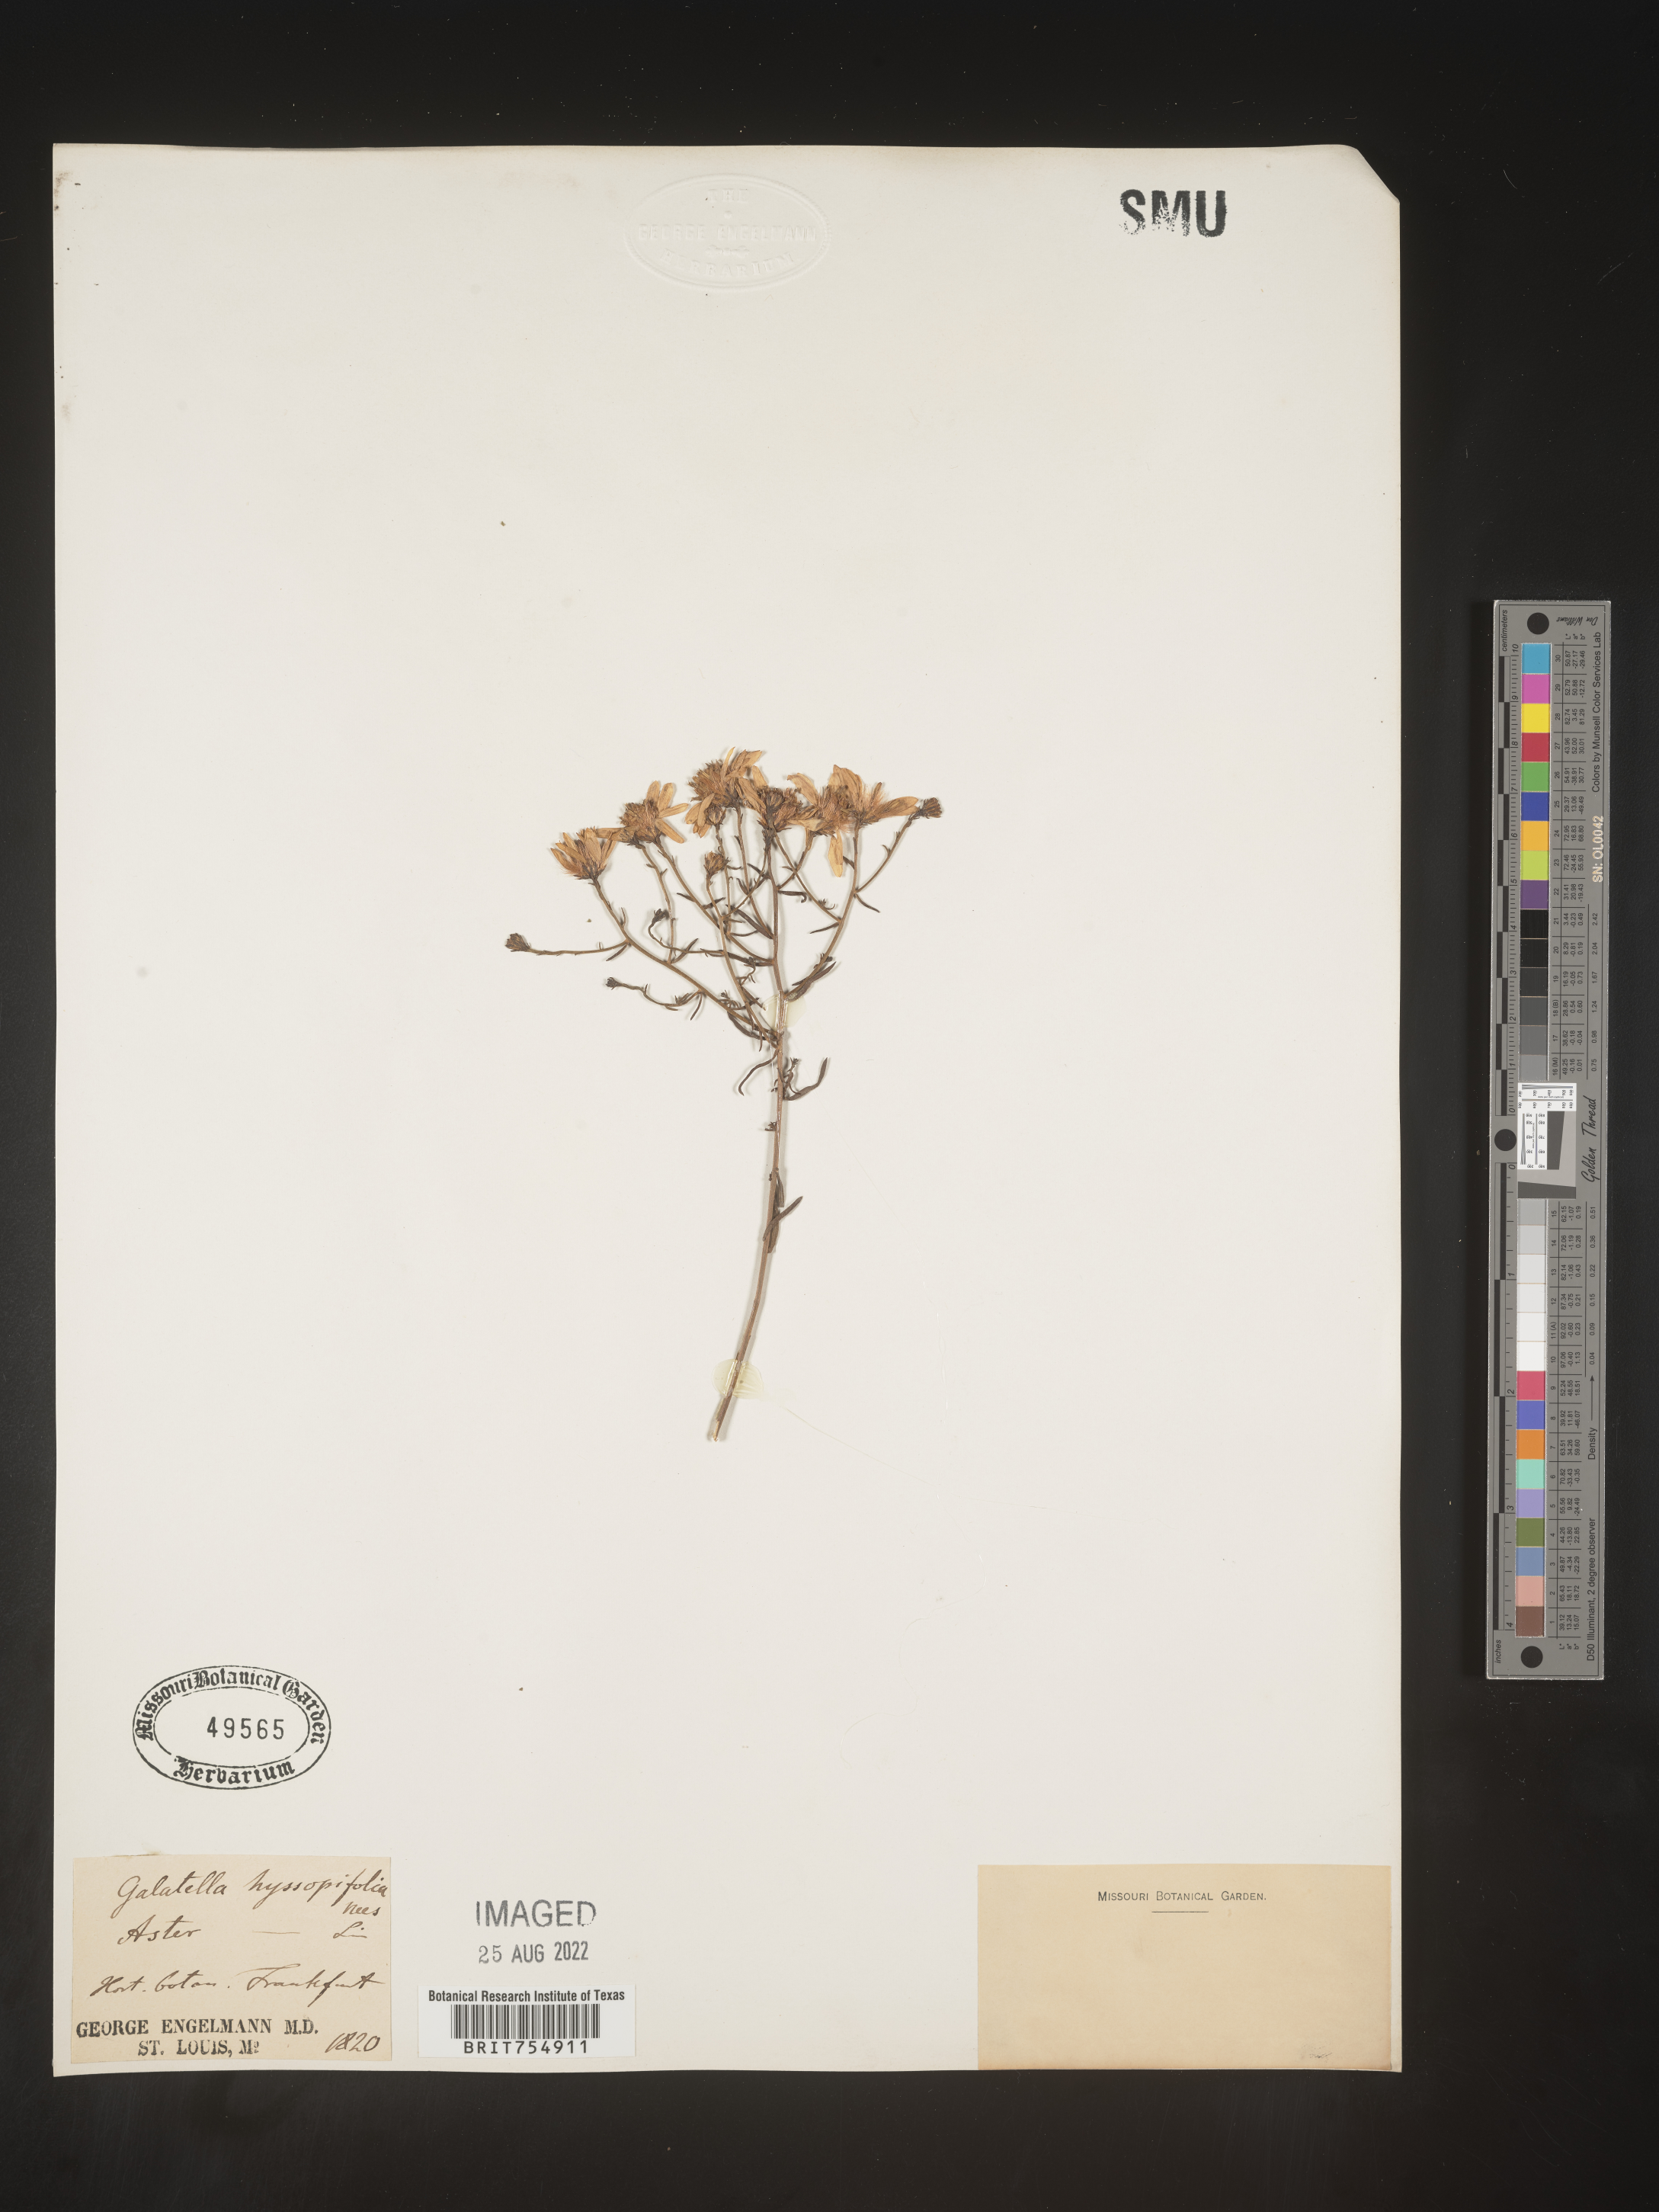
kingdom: Plantae
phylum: Tracheophyta
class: Magnoliopsida
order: Asterales
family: Asteraceae
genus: Symphyotrichum
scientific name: Symphyotrichum
